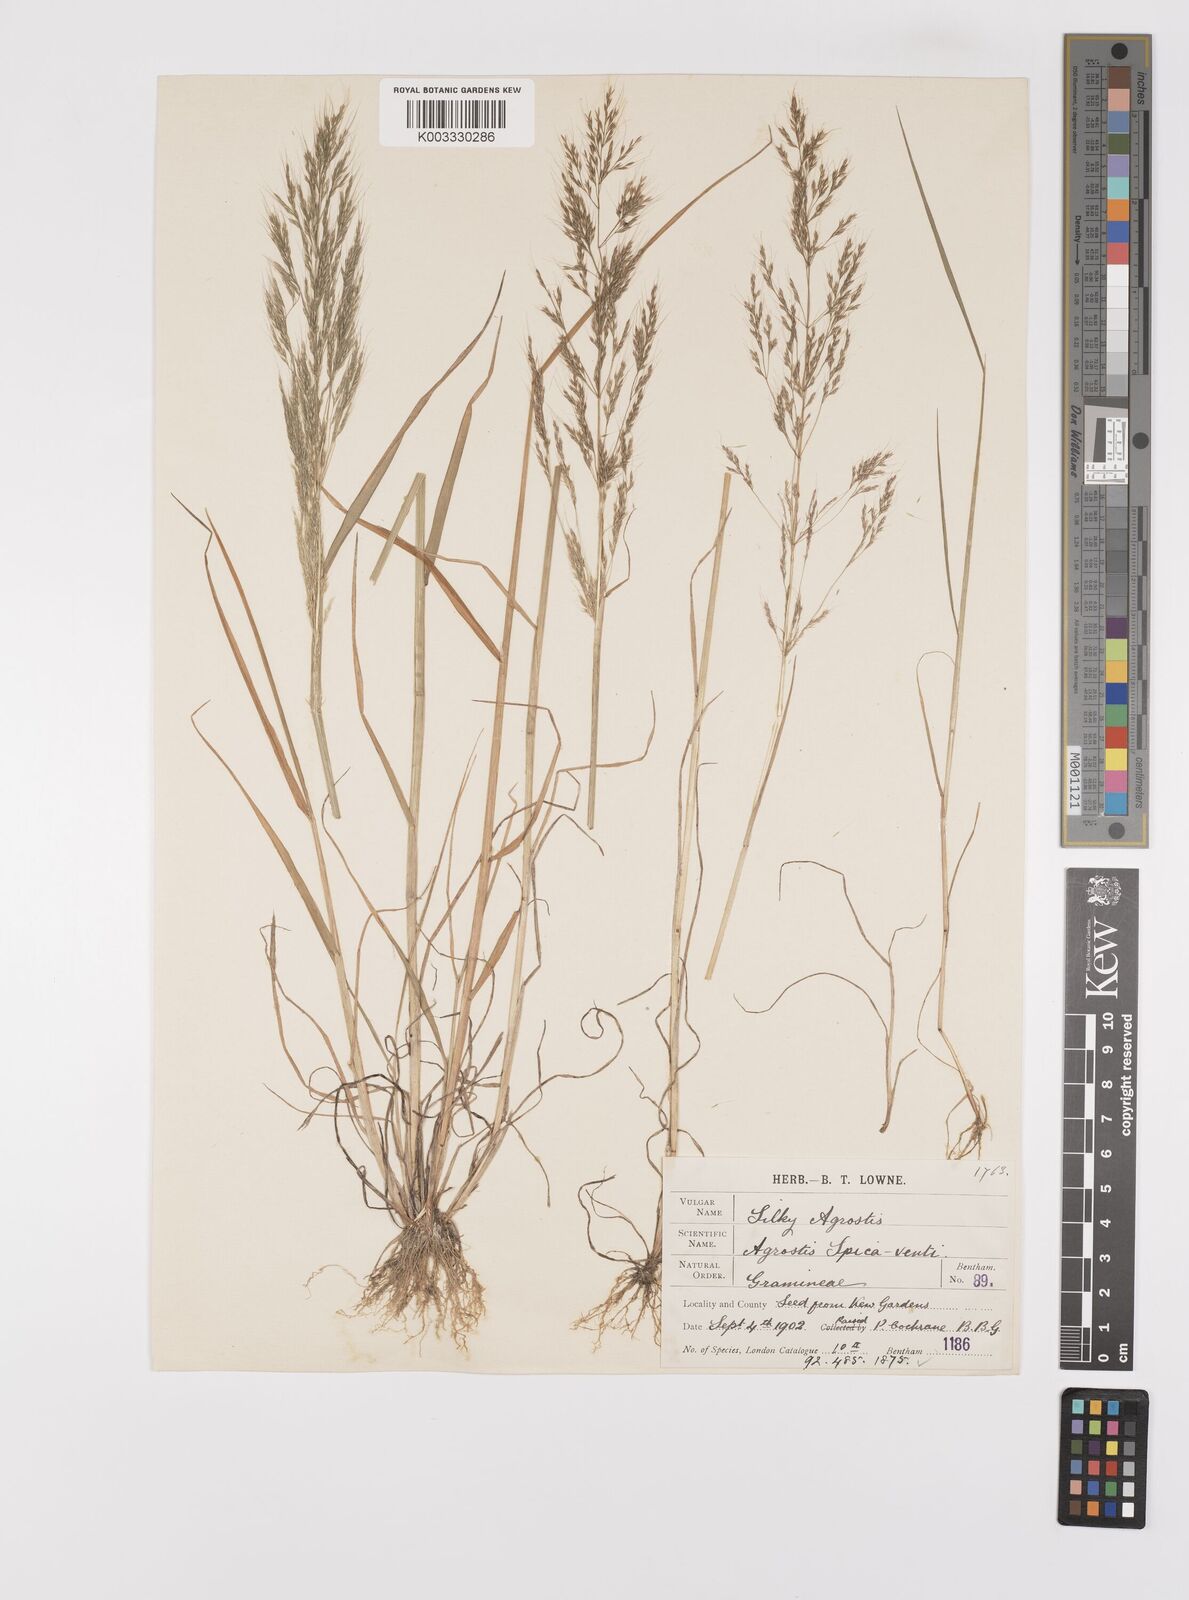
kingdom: Plantae
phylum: Tracheophyta
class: Liliopsida
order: Poales
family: Poaceae
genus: Apera
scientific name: Apera spica-venti
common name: Loose silky-bent
